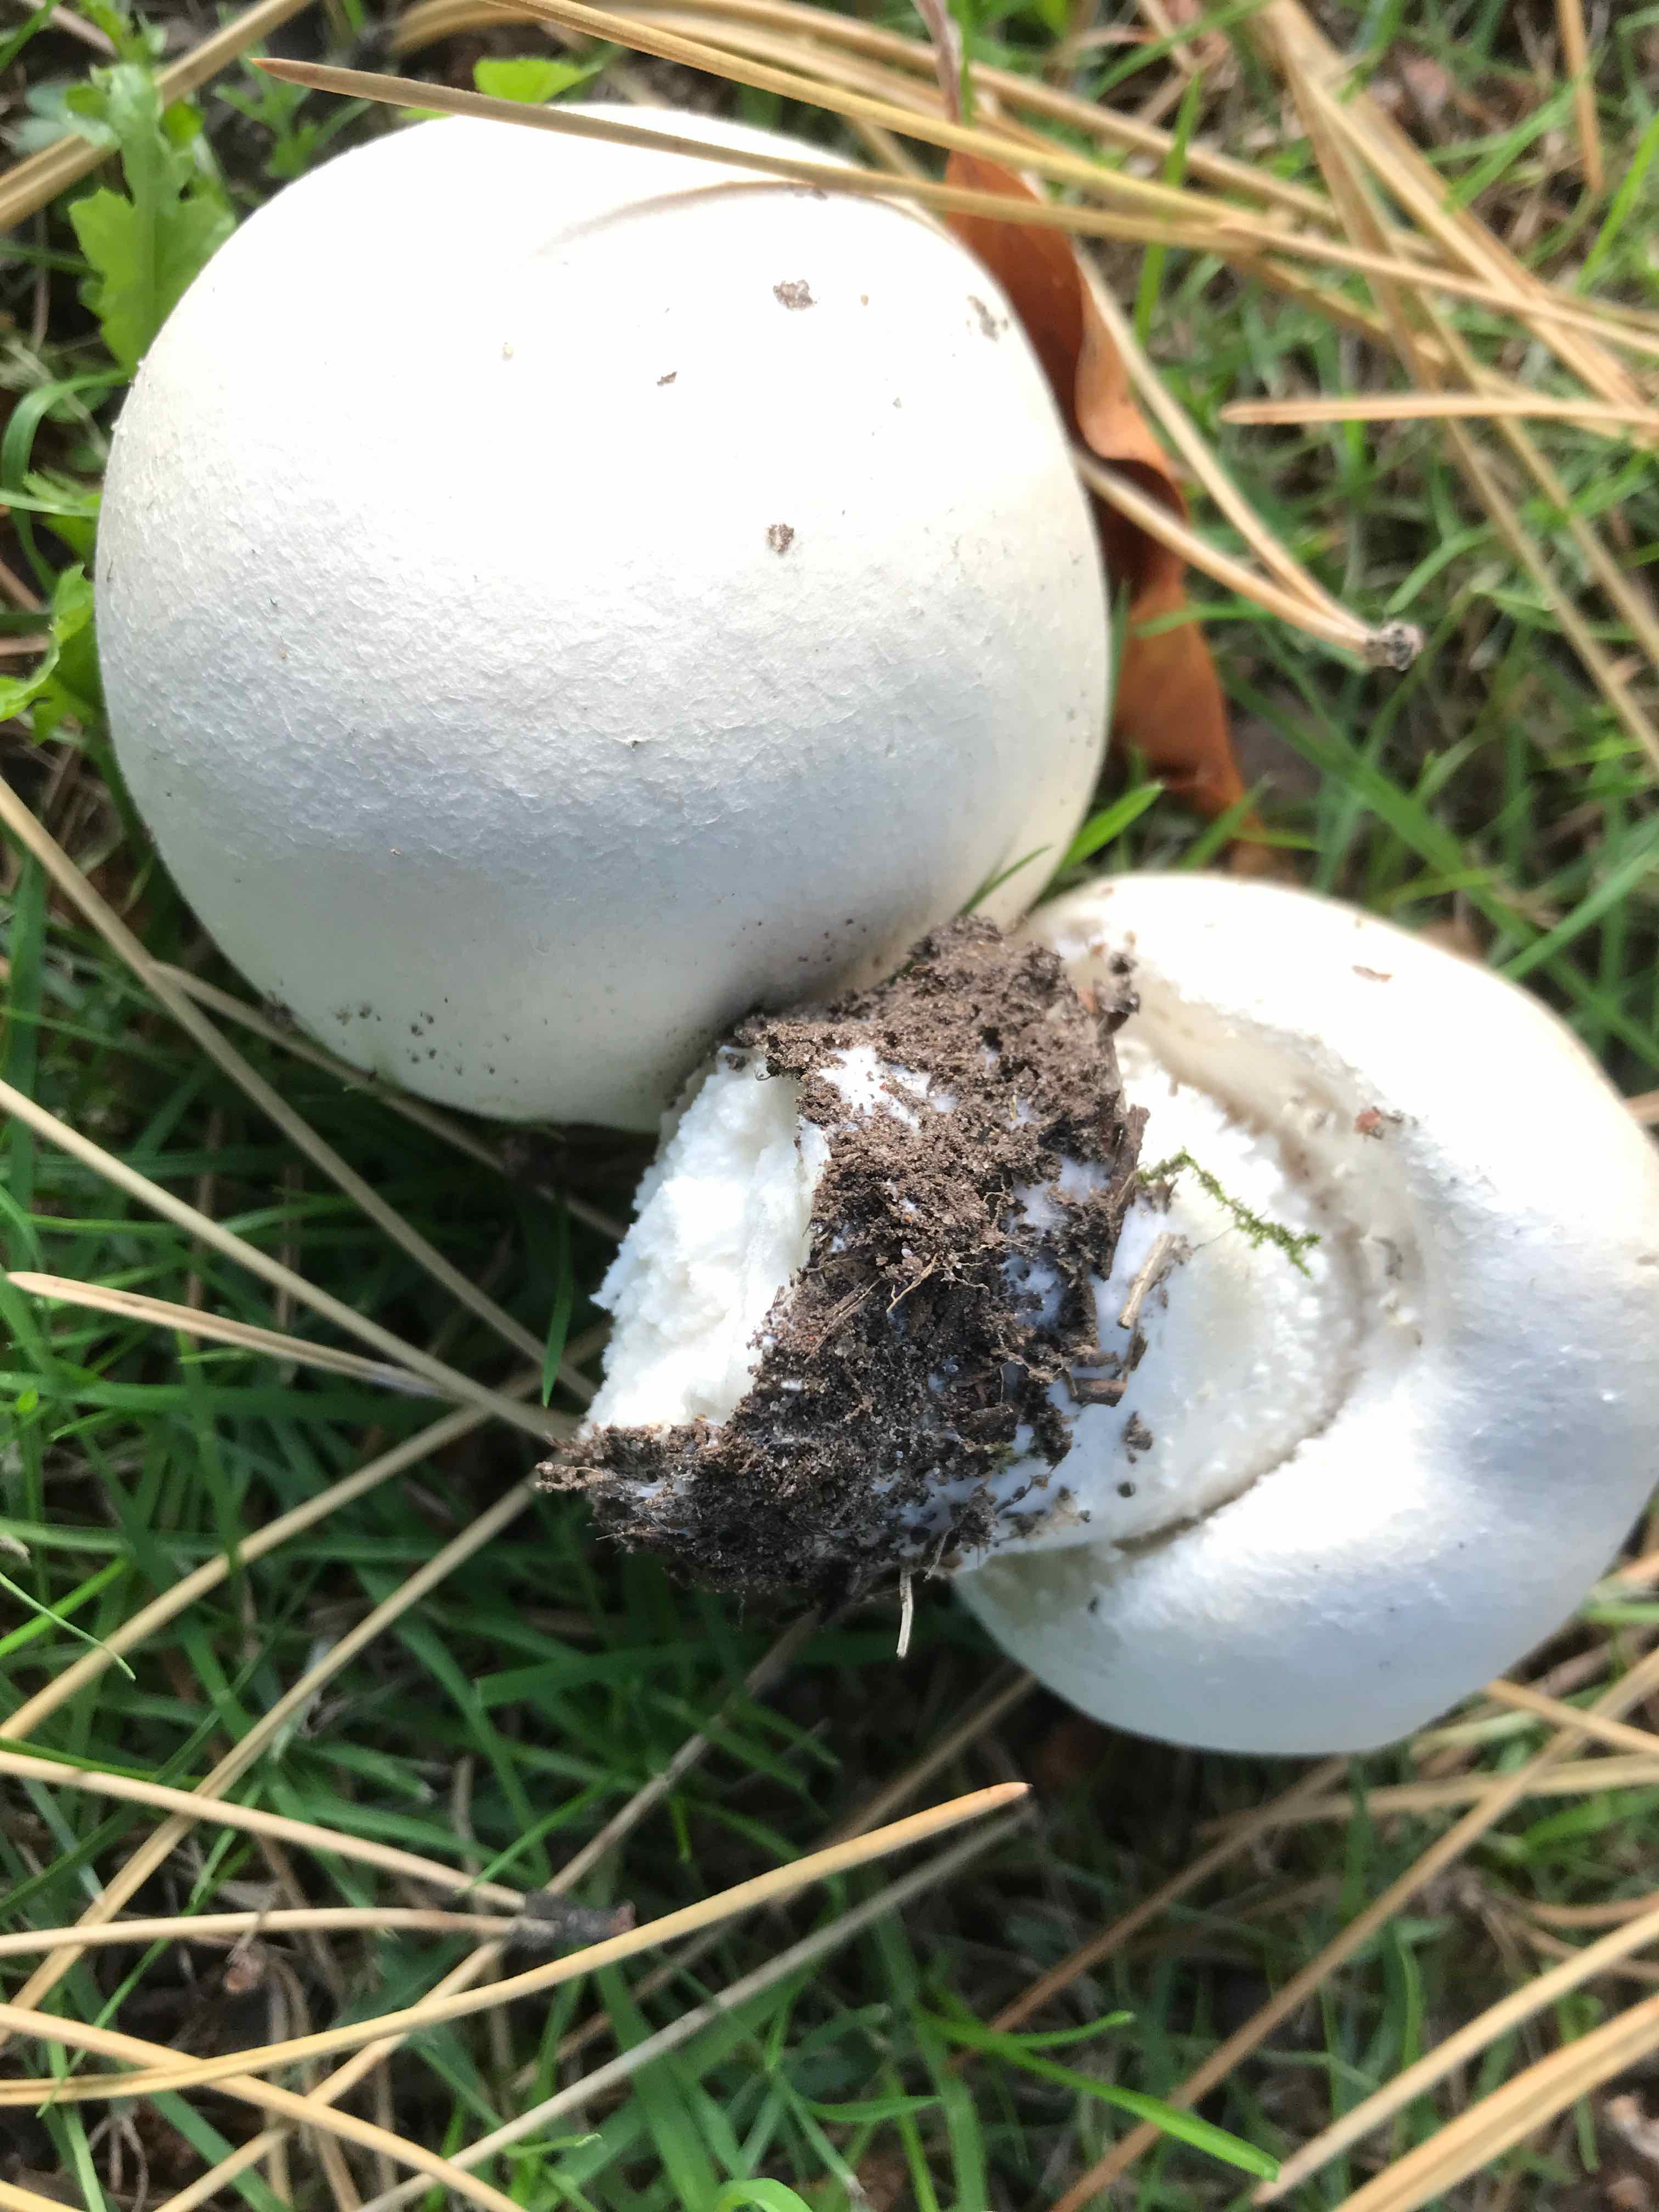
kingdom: Fungi
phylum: Basidiomycota
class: Agaricomycetes
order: Agaricales
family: Agaricaceae
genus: Agaricus
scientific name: Agaricus arvensis
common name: ager-champignon
